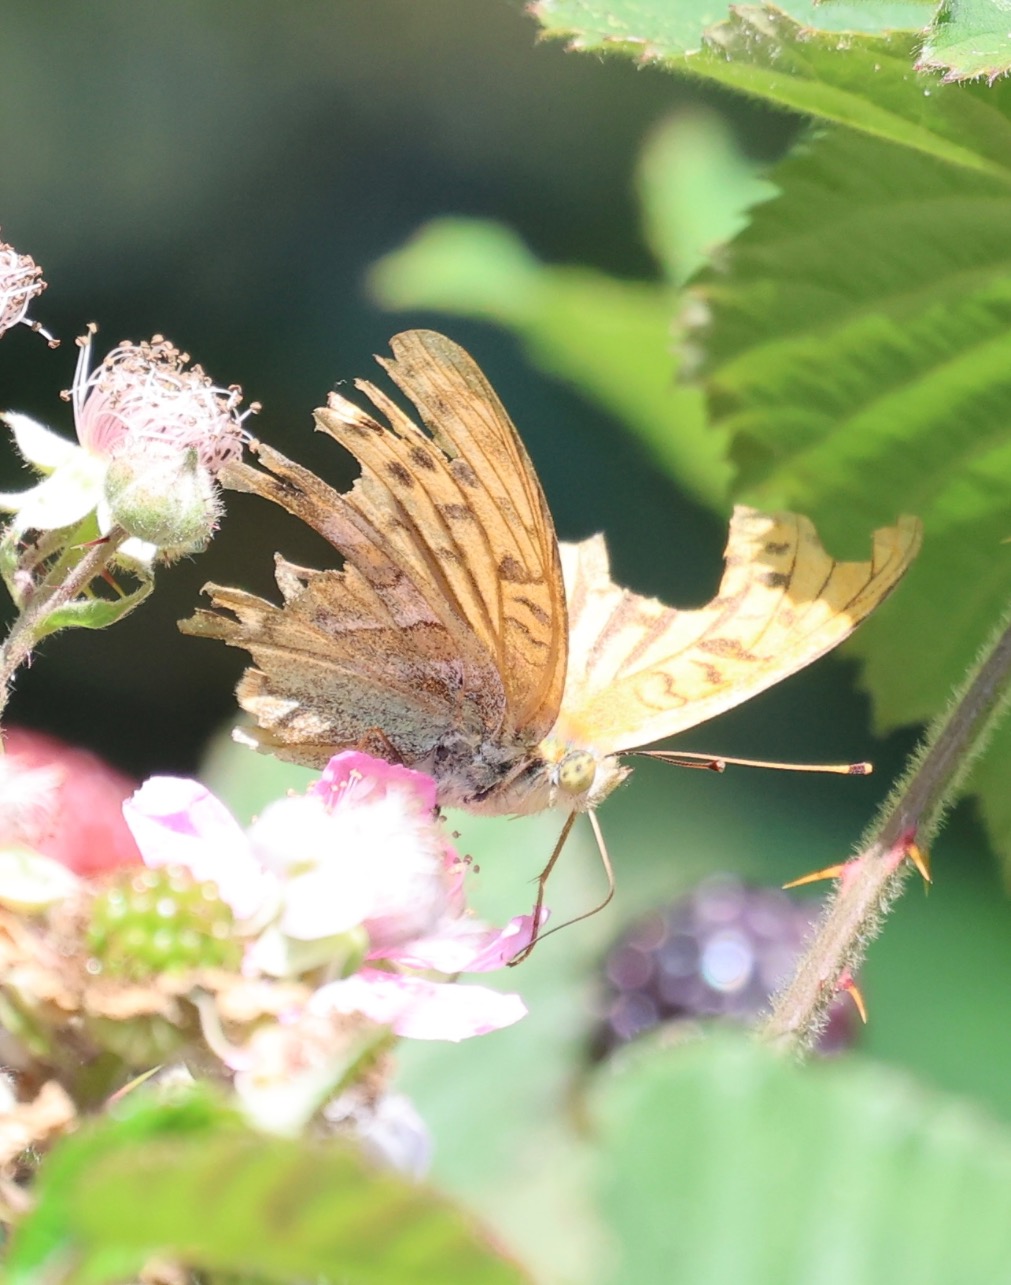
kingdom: Animalia
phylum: Arthropoda
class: Insecta
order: Lepidoptera
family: Nymphalidae
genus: Argynnis
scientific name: Argynnis paphia
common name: Kejserkåbe
